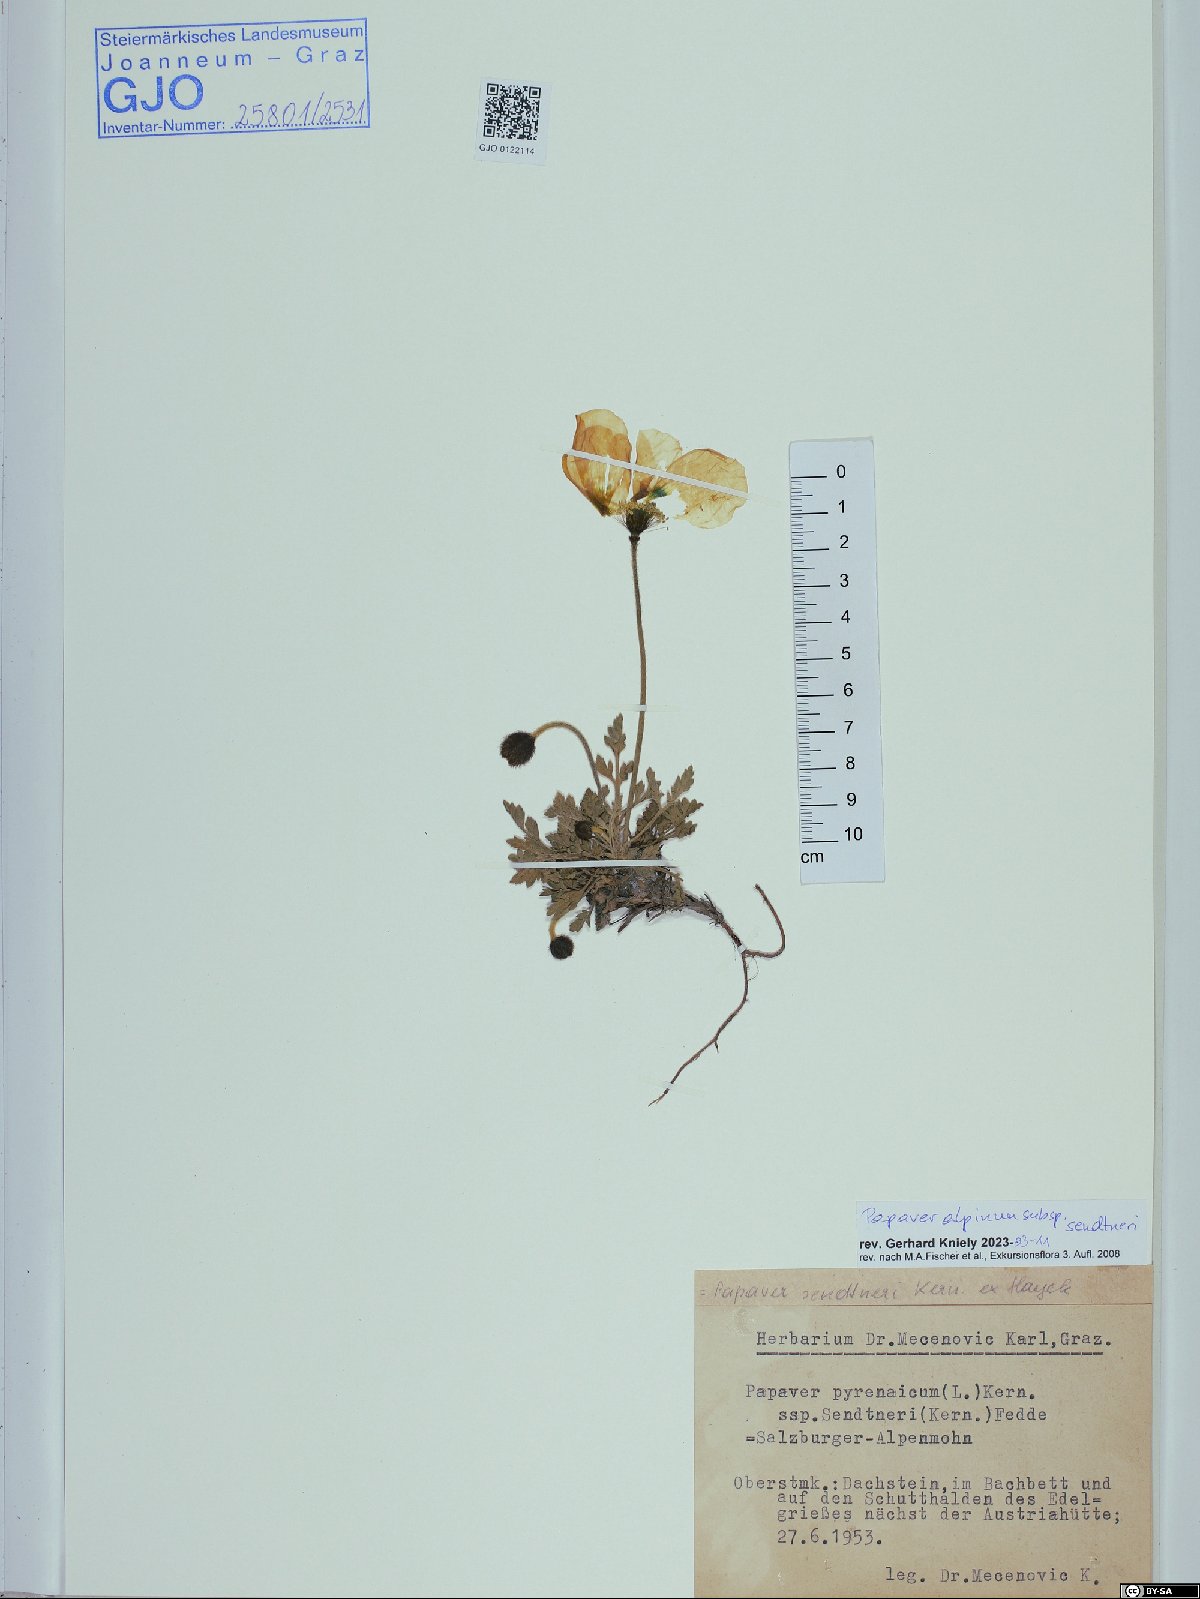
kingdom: Plantae
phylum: Tracheophyta
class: Magnoliopsida
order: Ranunculales
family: Papaveraceae
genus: Papaver
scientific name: Papaver alpinum
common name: Austrian poppy
